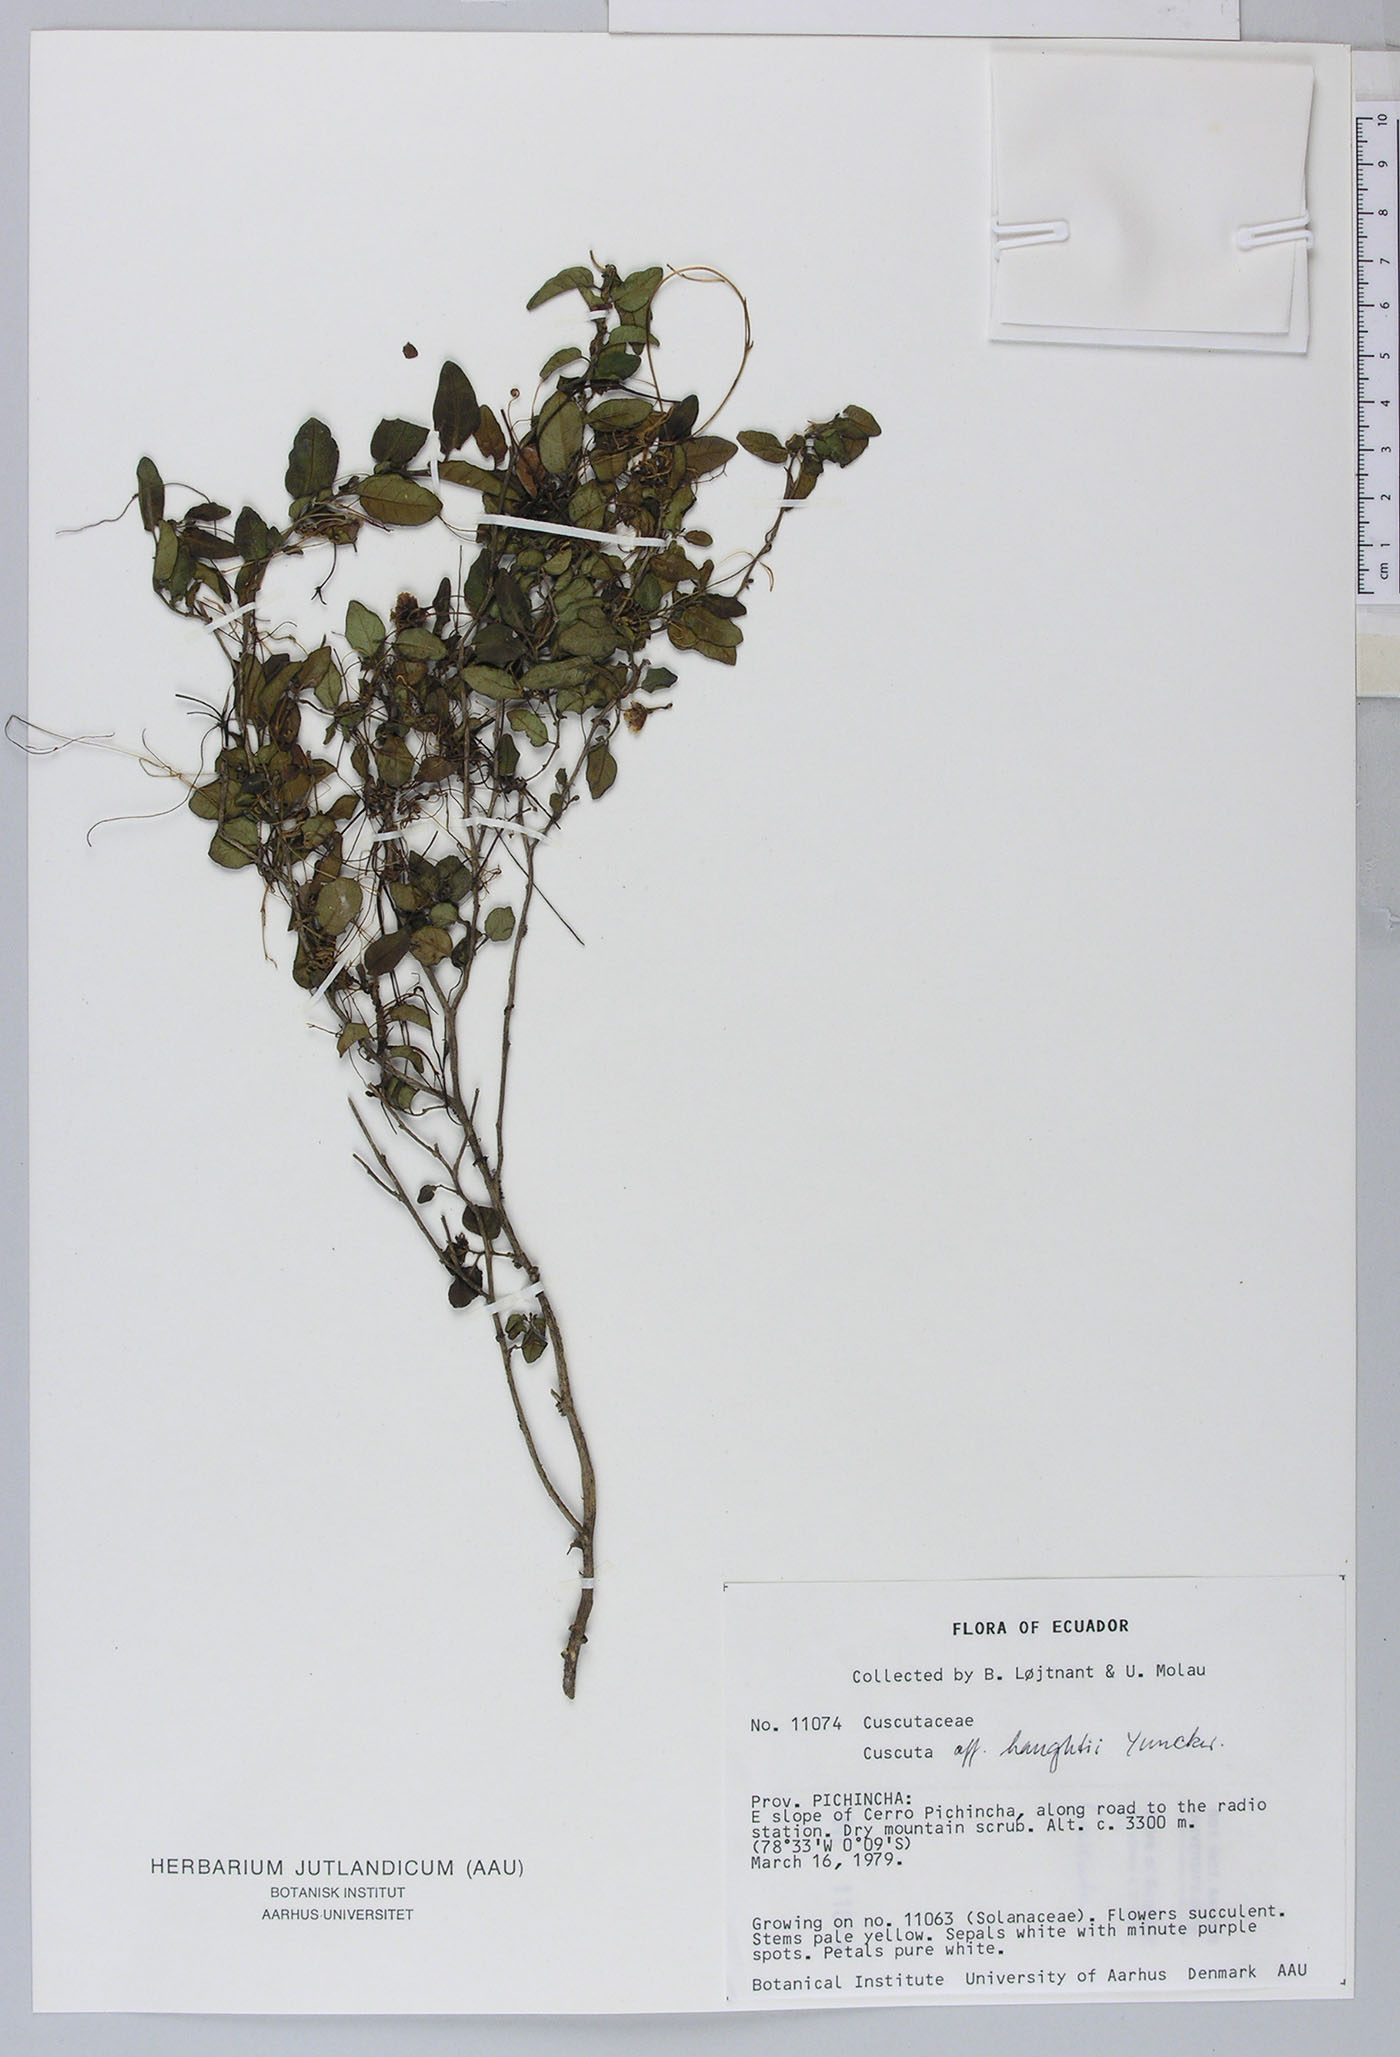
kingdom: Plantae
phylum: Tracheophyta
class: Magnoliopsida
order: Solanales
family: Convolvulaceae
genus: Cuscuta
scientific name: Cuscuta
